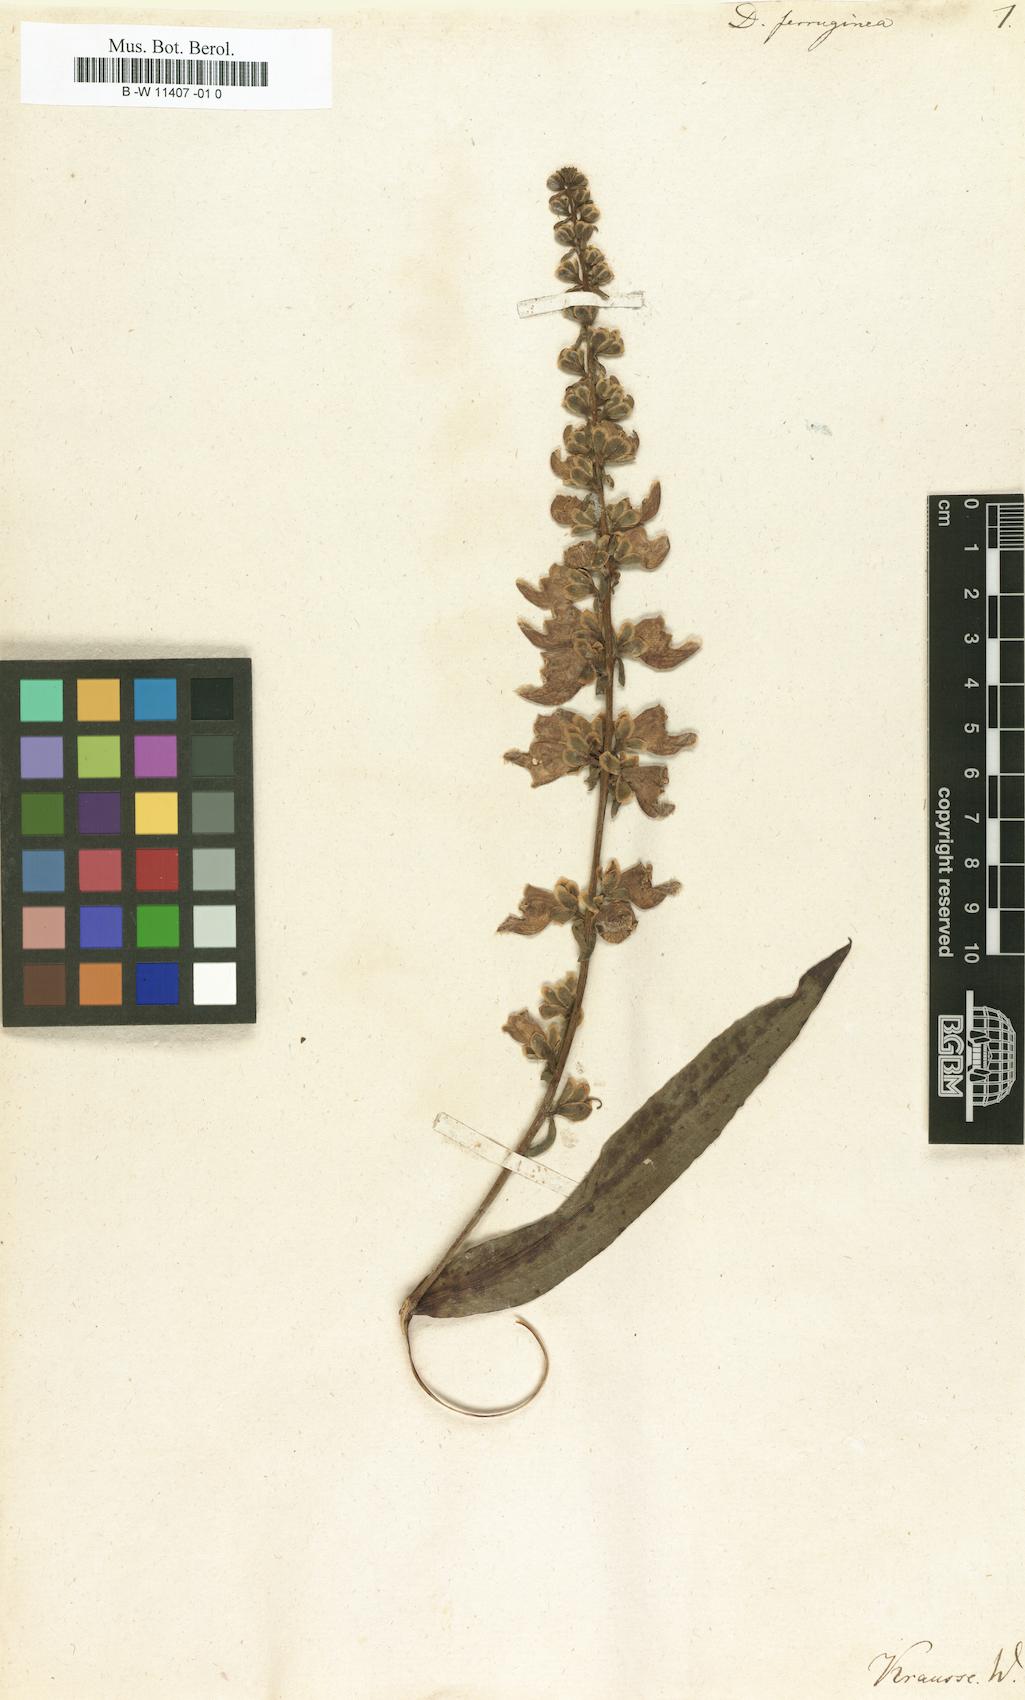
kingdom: Plantae
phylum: Tracheophyta
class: Magnoliopsida
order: Lamiales
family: Plantaginaceae
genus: Digitalis
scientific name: Digitalis ferruginea
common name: Rusty foxglove
